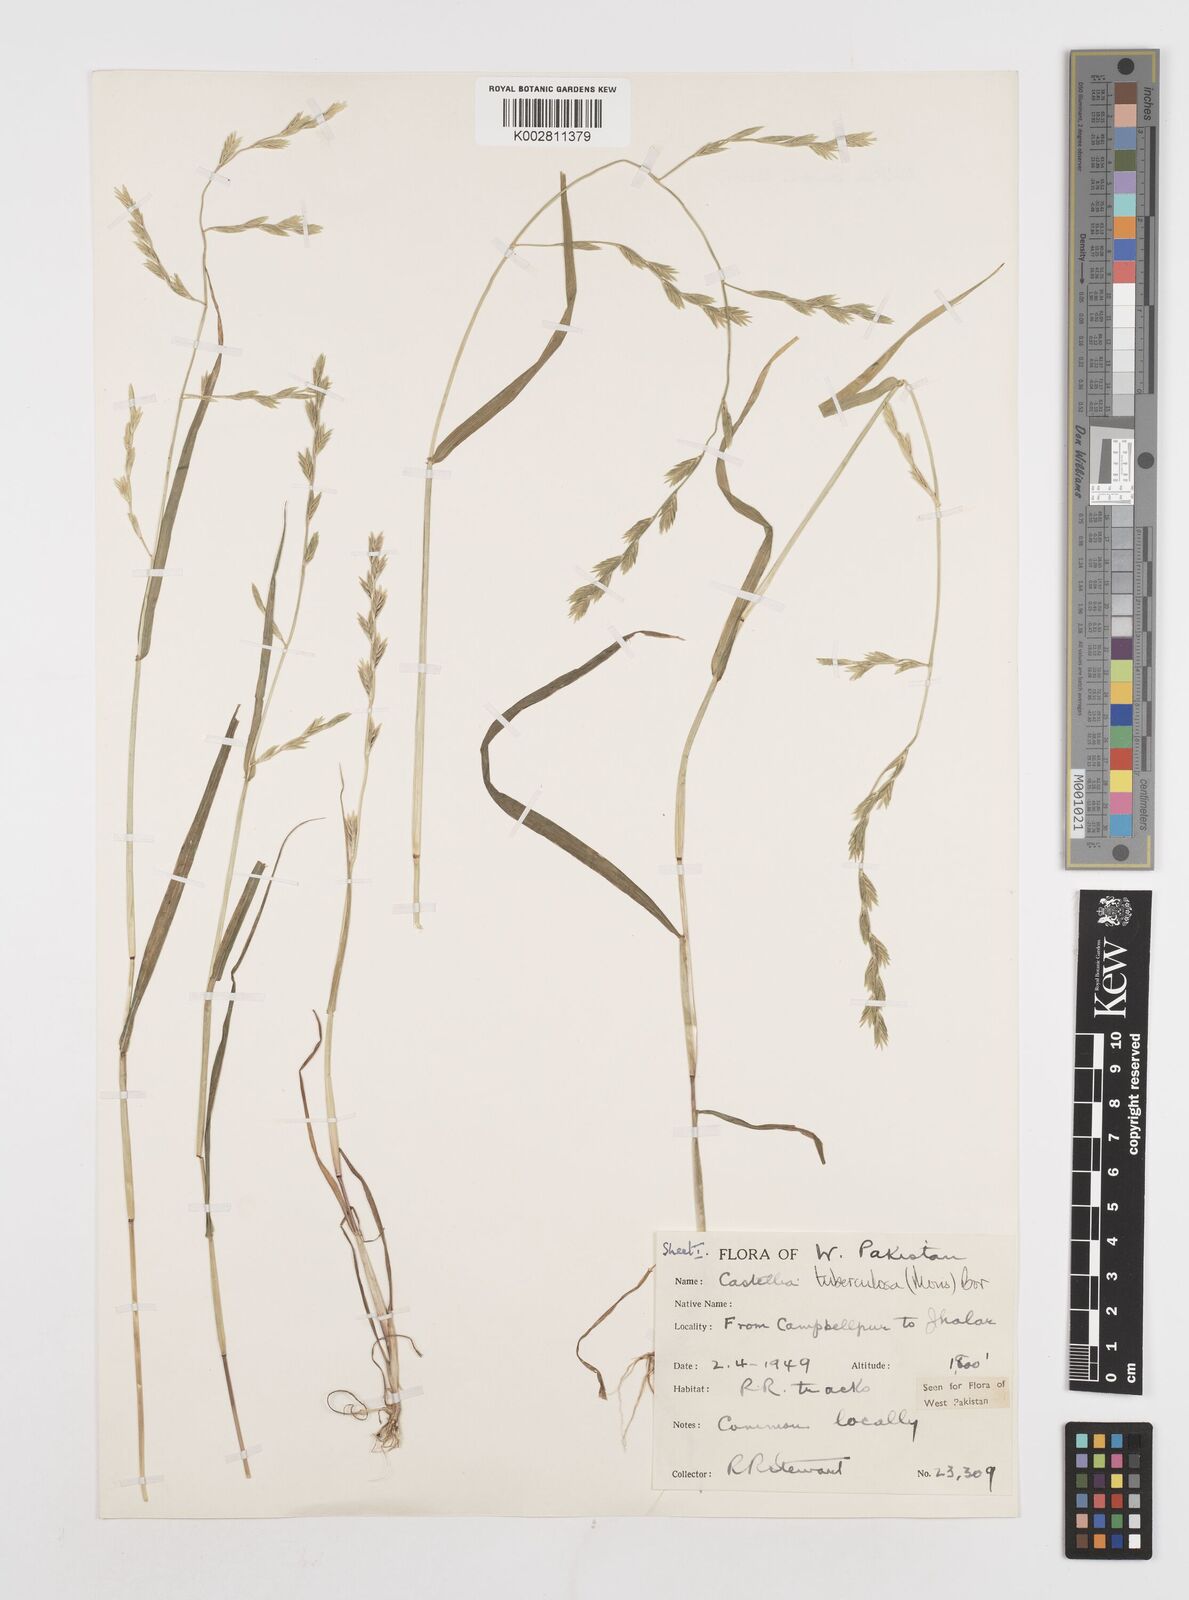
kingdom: Plantae
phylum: Tracheophyta
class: Liliopsida
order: Poales
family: Poaceae
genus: Castellia
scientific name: Castellia tuberculosa
